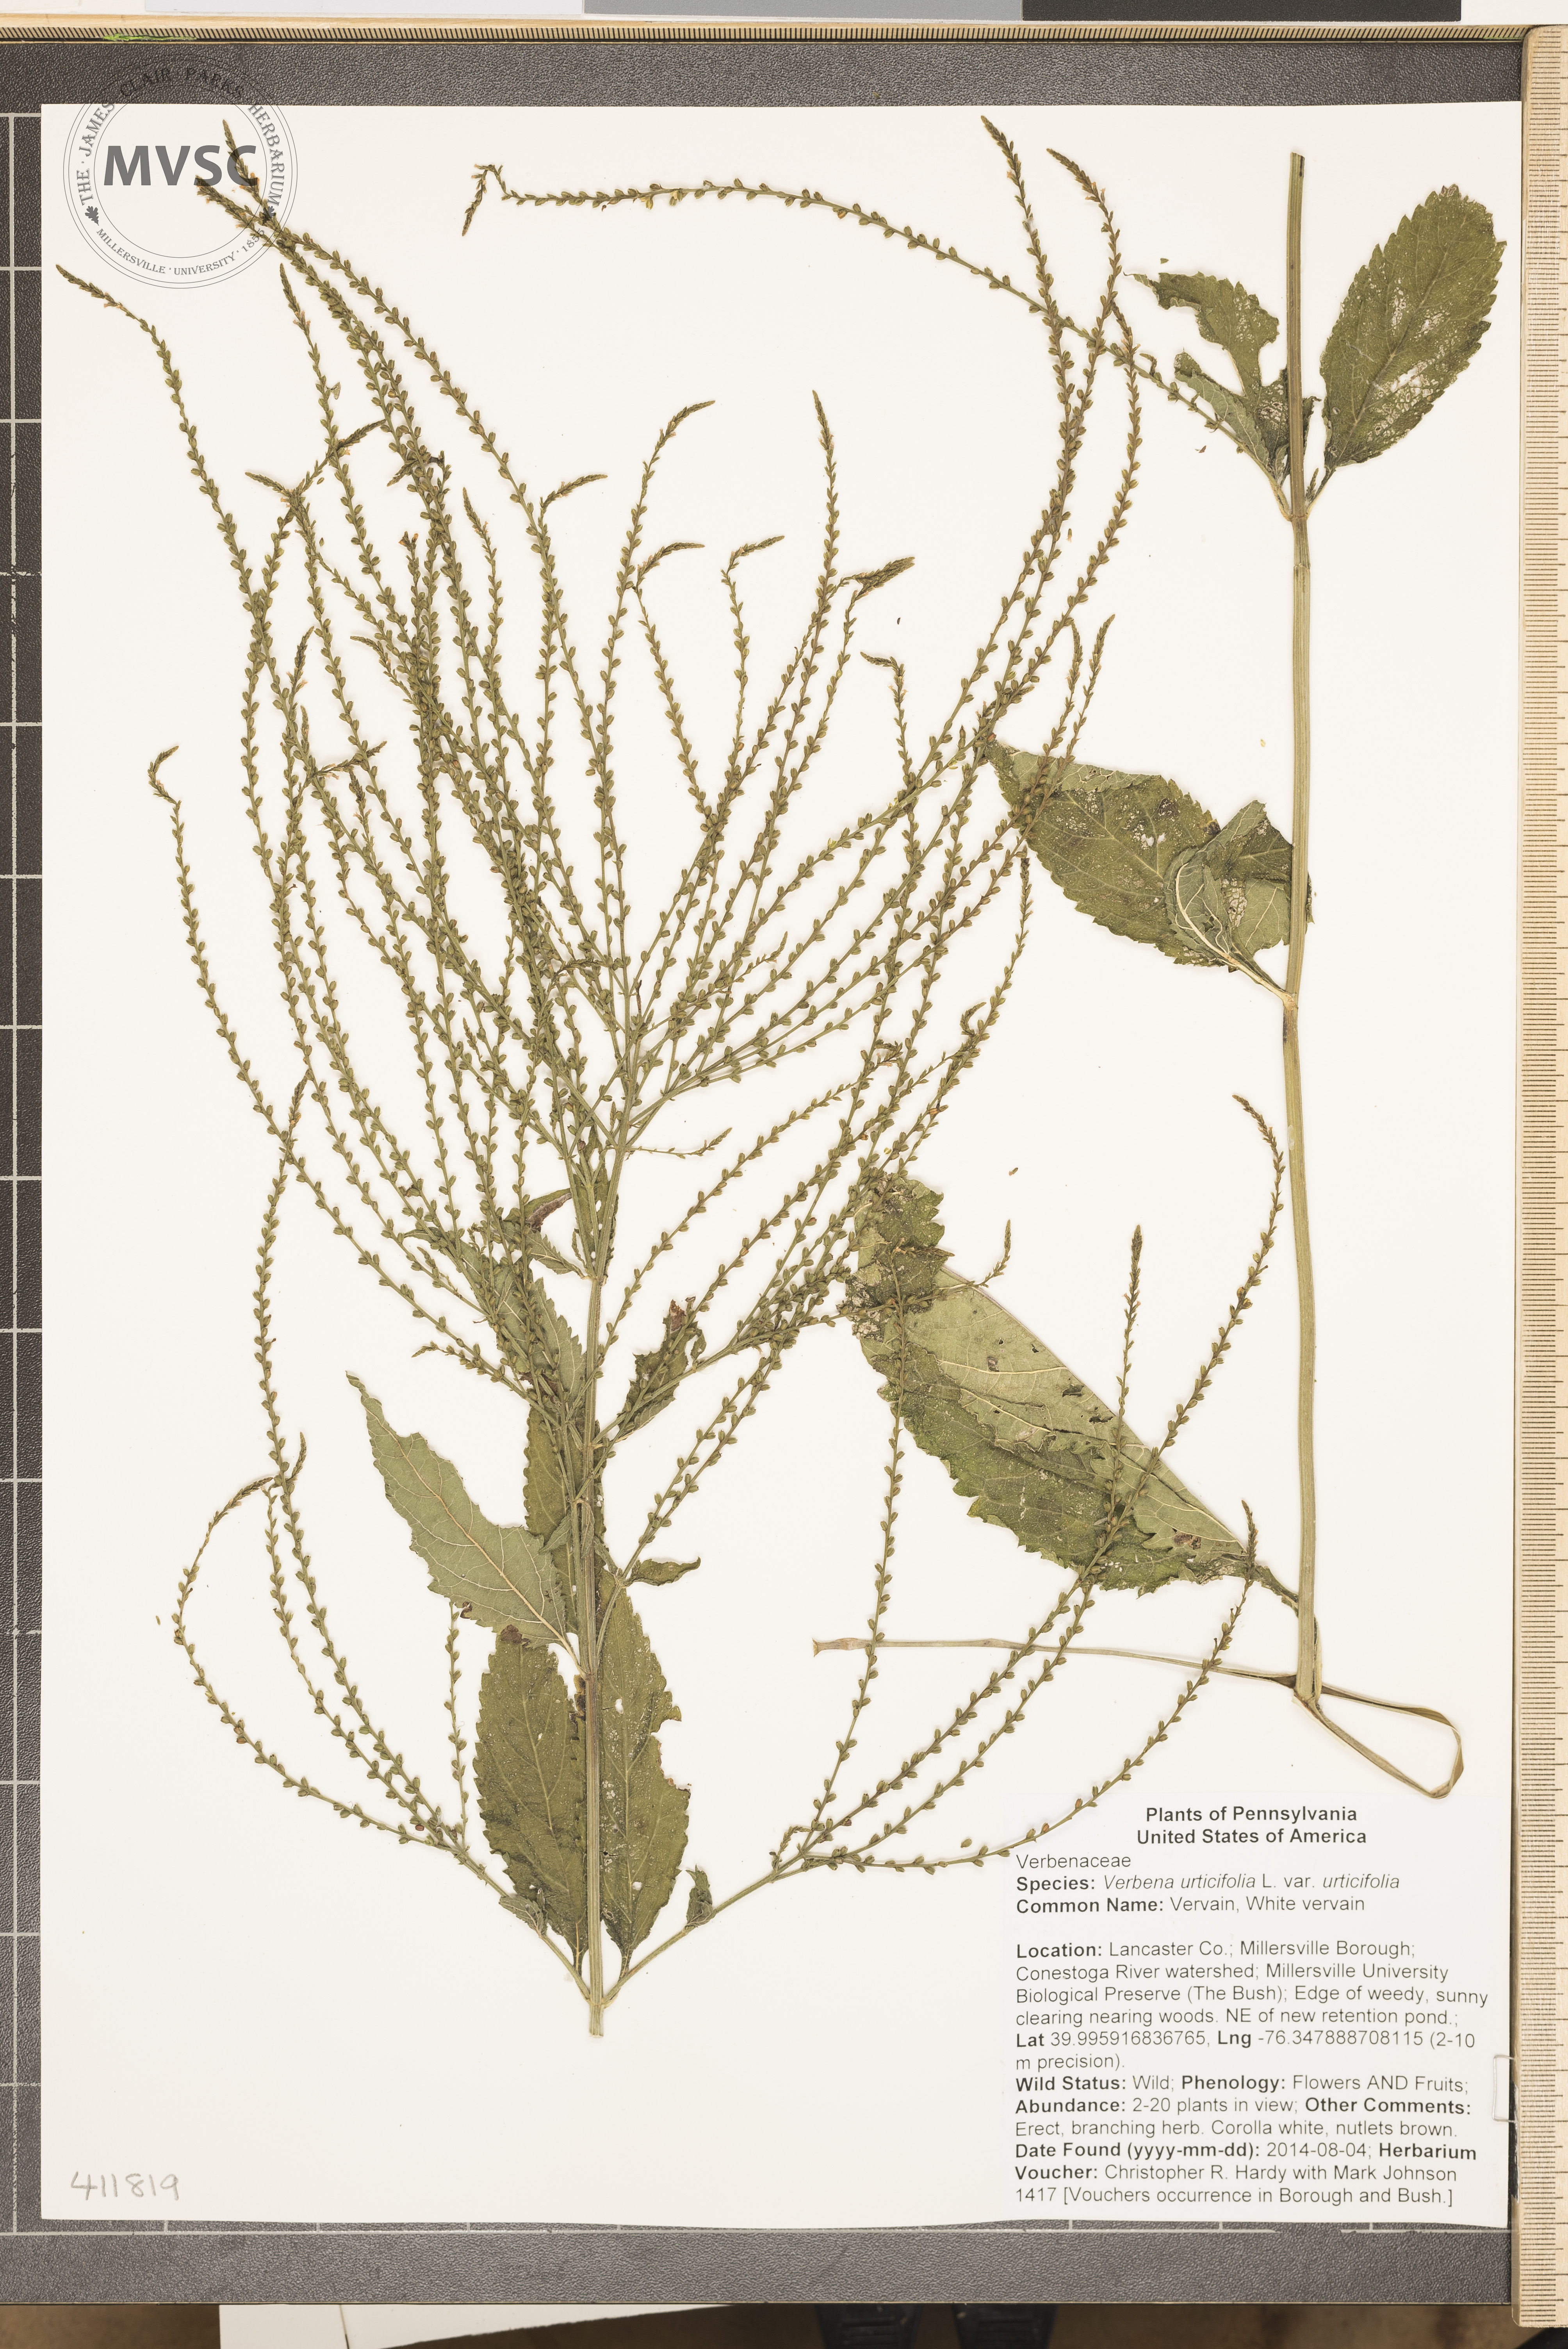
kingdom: Plantae
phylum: Tracheophyta
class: Magnoliopsida
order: Lamiales
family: Verbenaceae
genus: Verbena
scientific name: Verbena urticifolia
